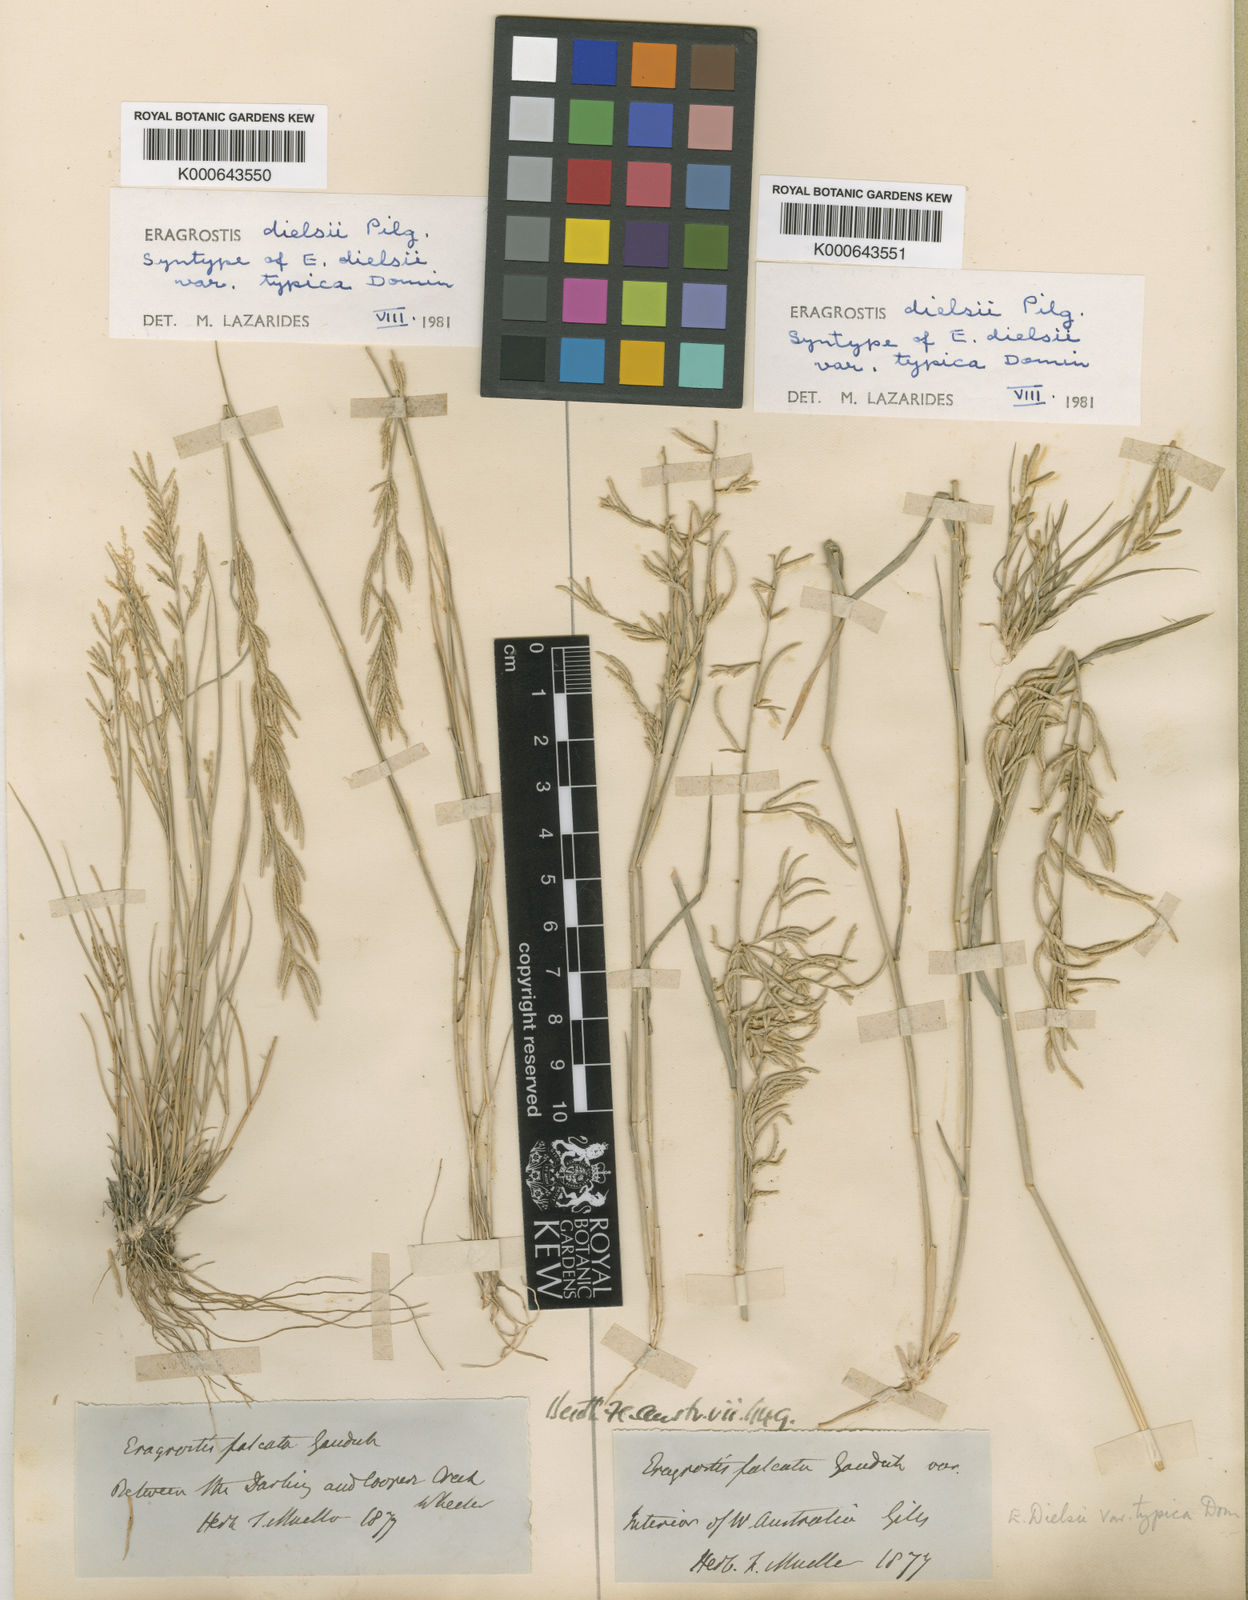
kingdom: Plantae
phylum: Tracheophyta
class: Liliopsida
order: Poales
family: Poaceae
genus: Eragrostis
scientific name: Eragrostis
